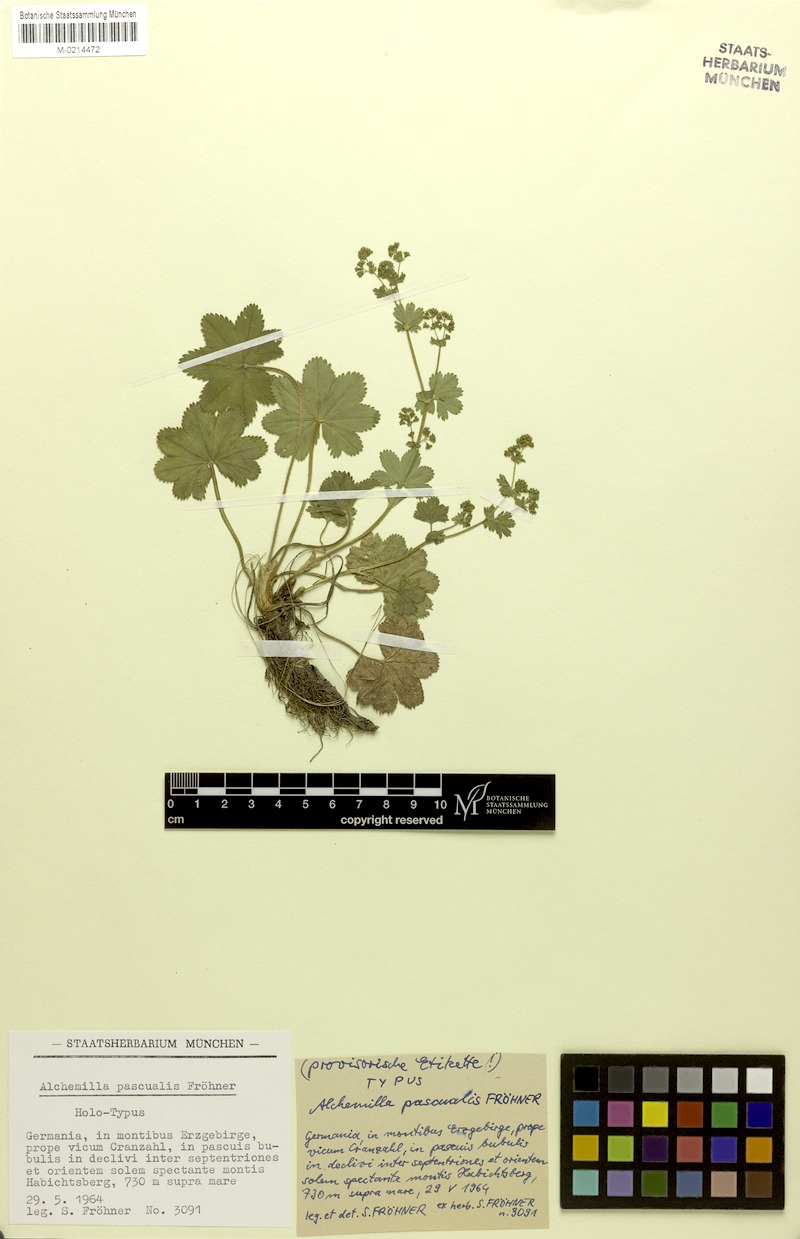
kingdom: Plantae
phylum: Tracheophyta
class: Magnoliopsida
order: Rosales
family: Rosaceae
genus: Alchemilla
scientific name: Alchemilla monticola
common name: Hairy lady's mantle
